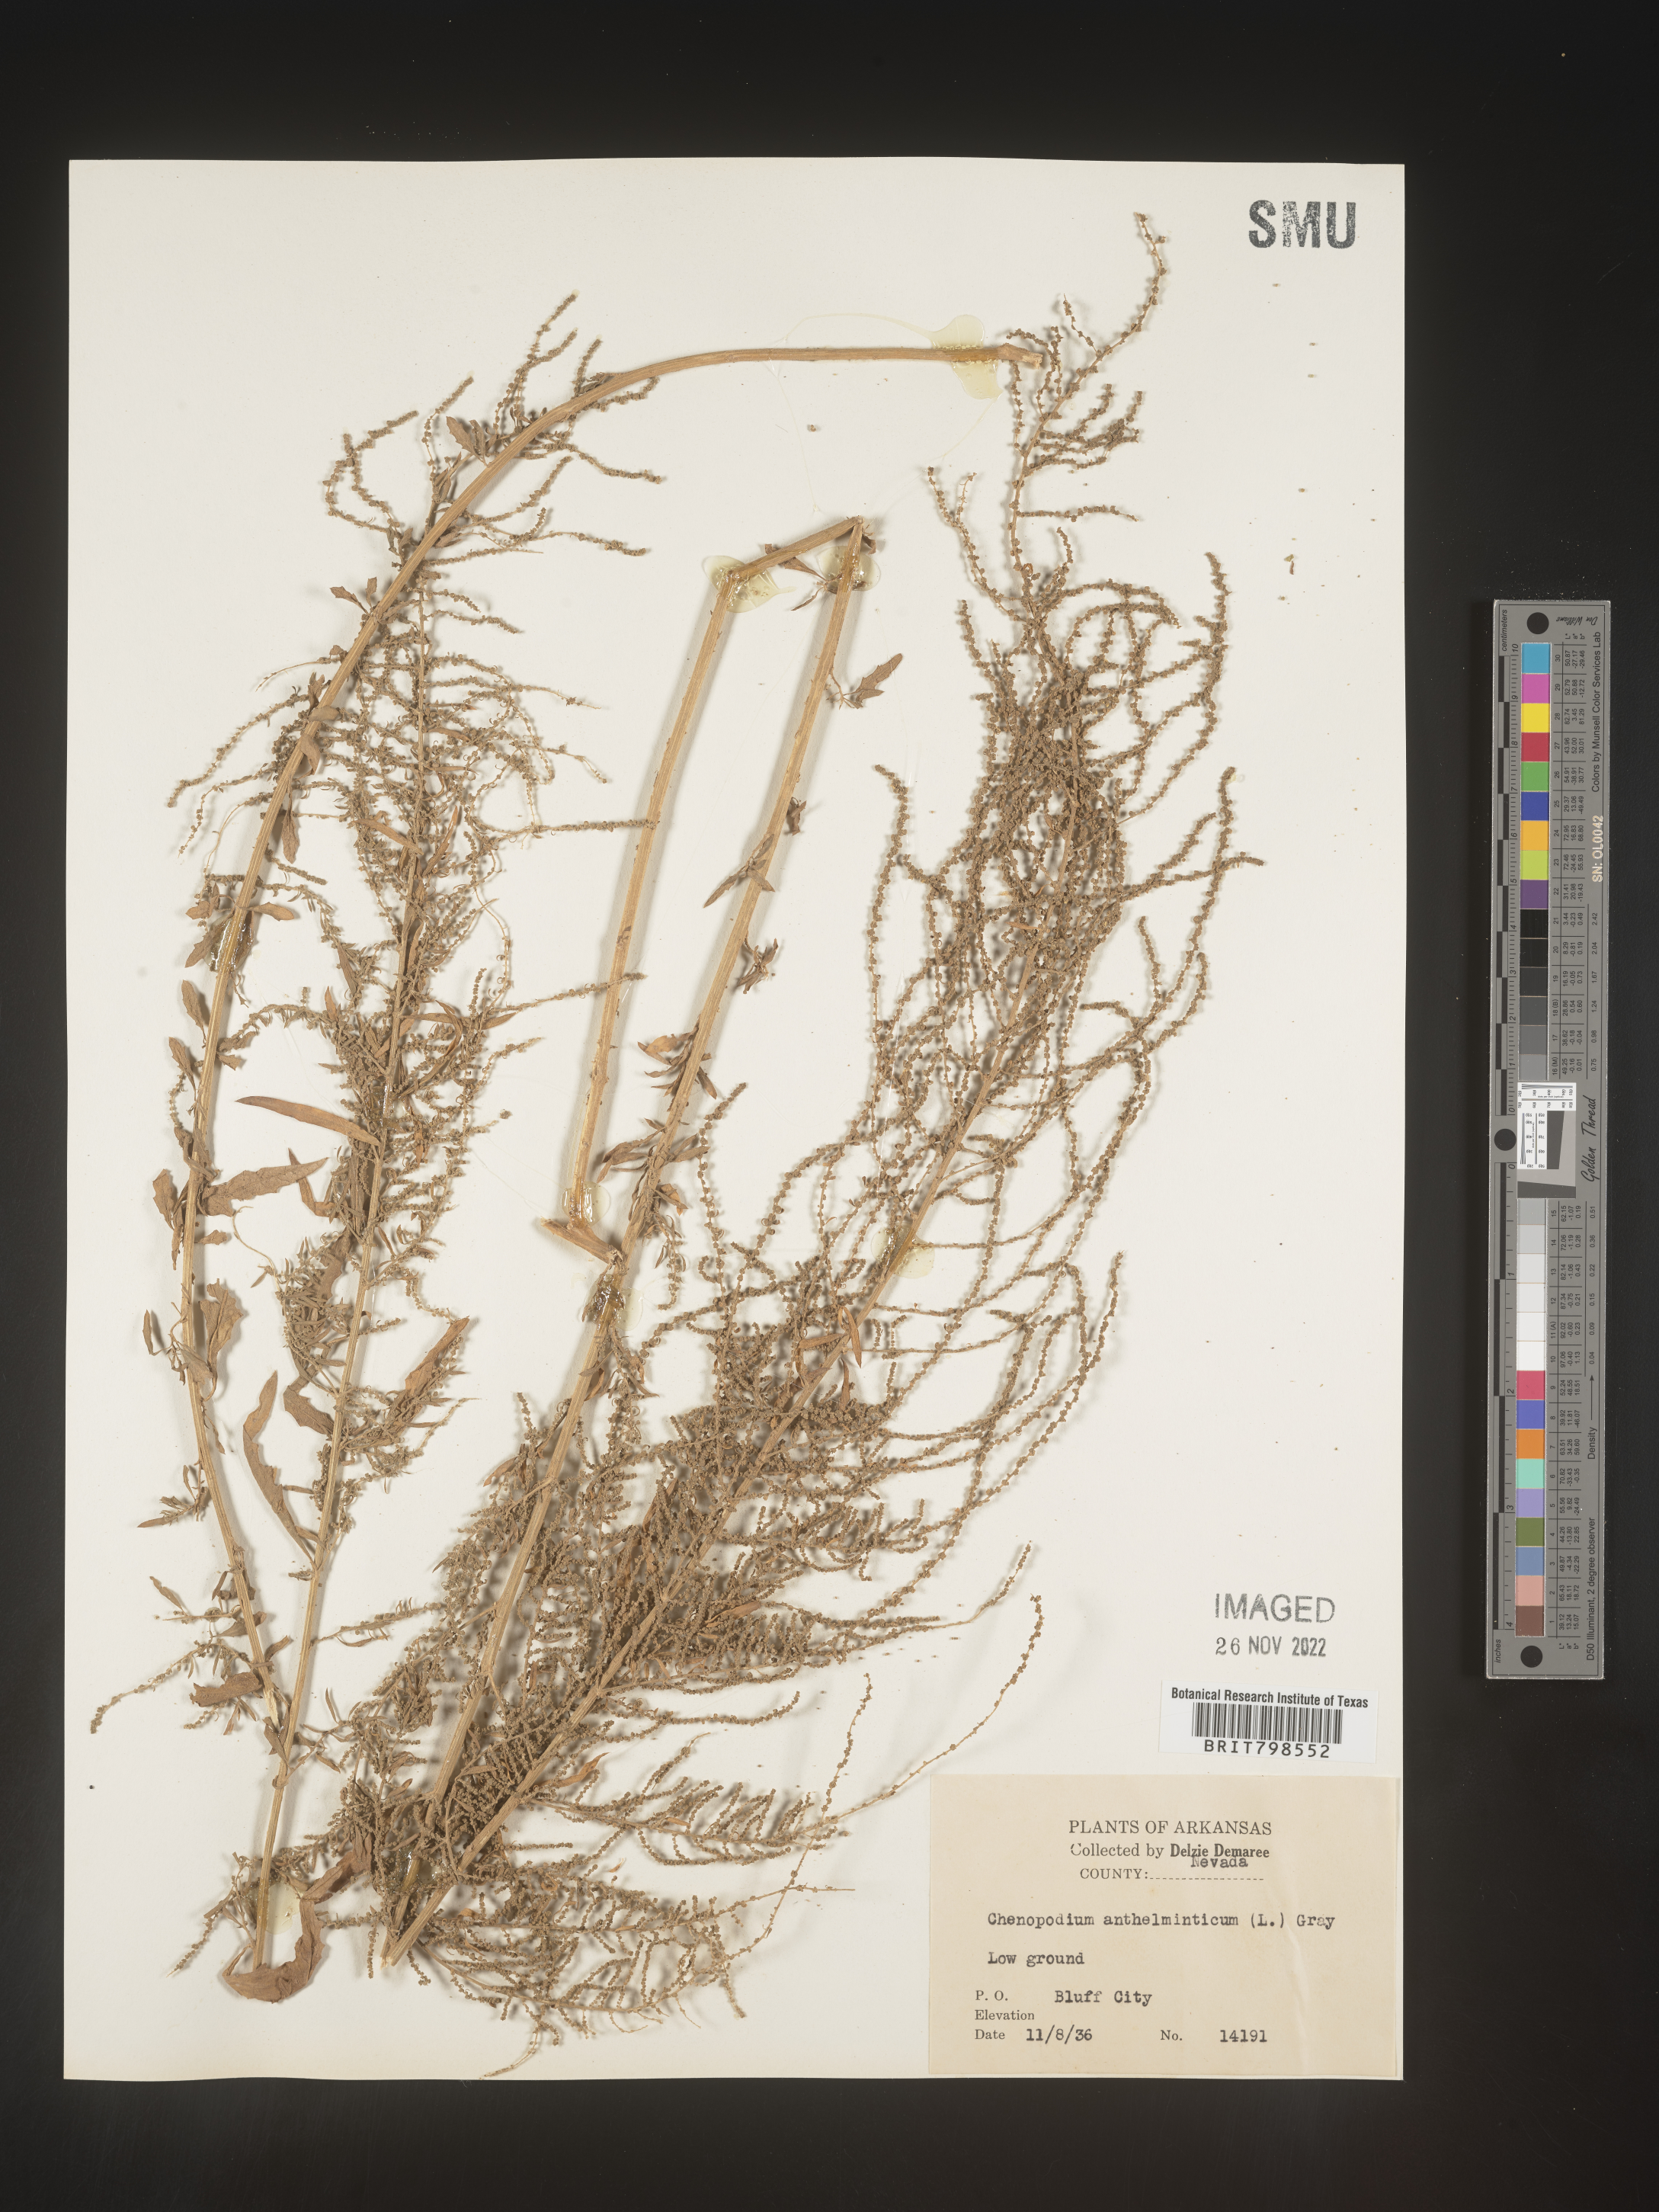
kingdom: Plantae
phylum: Tracheophyta
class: Magnoliopsida
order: Caryophyllales
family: Amaranthaceae
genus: Dysphania
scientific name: Dysphania ambrosioides
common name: Wormseed
